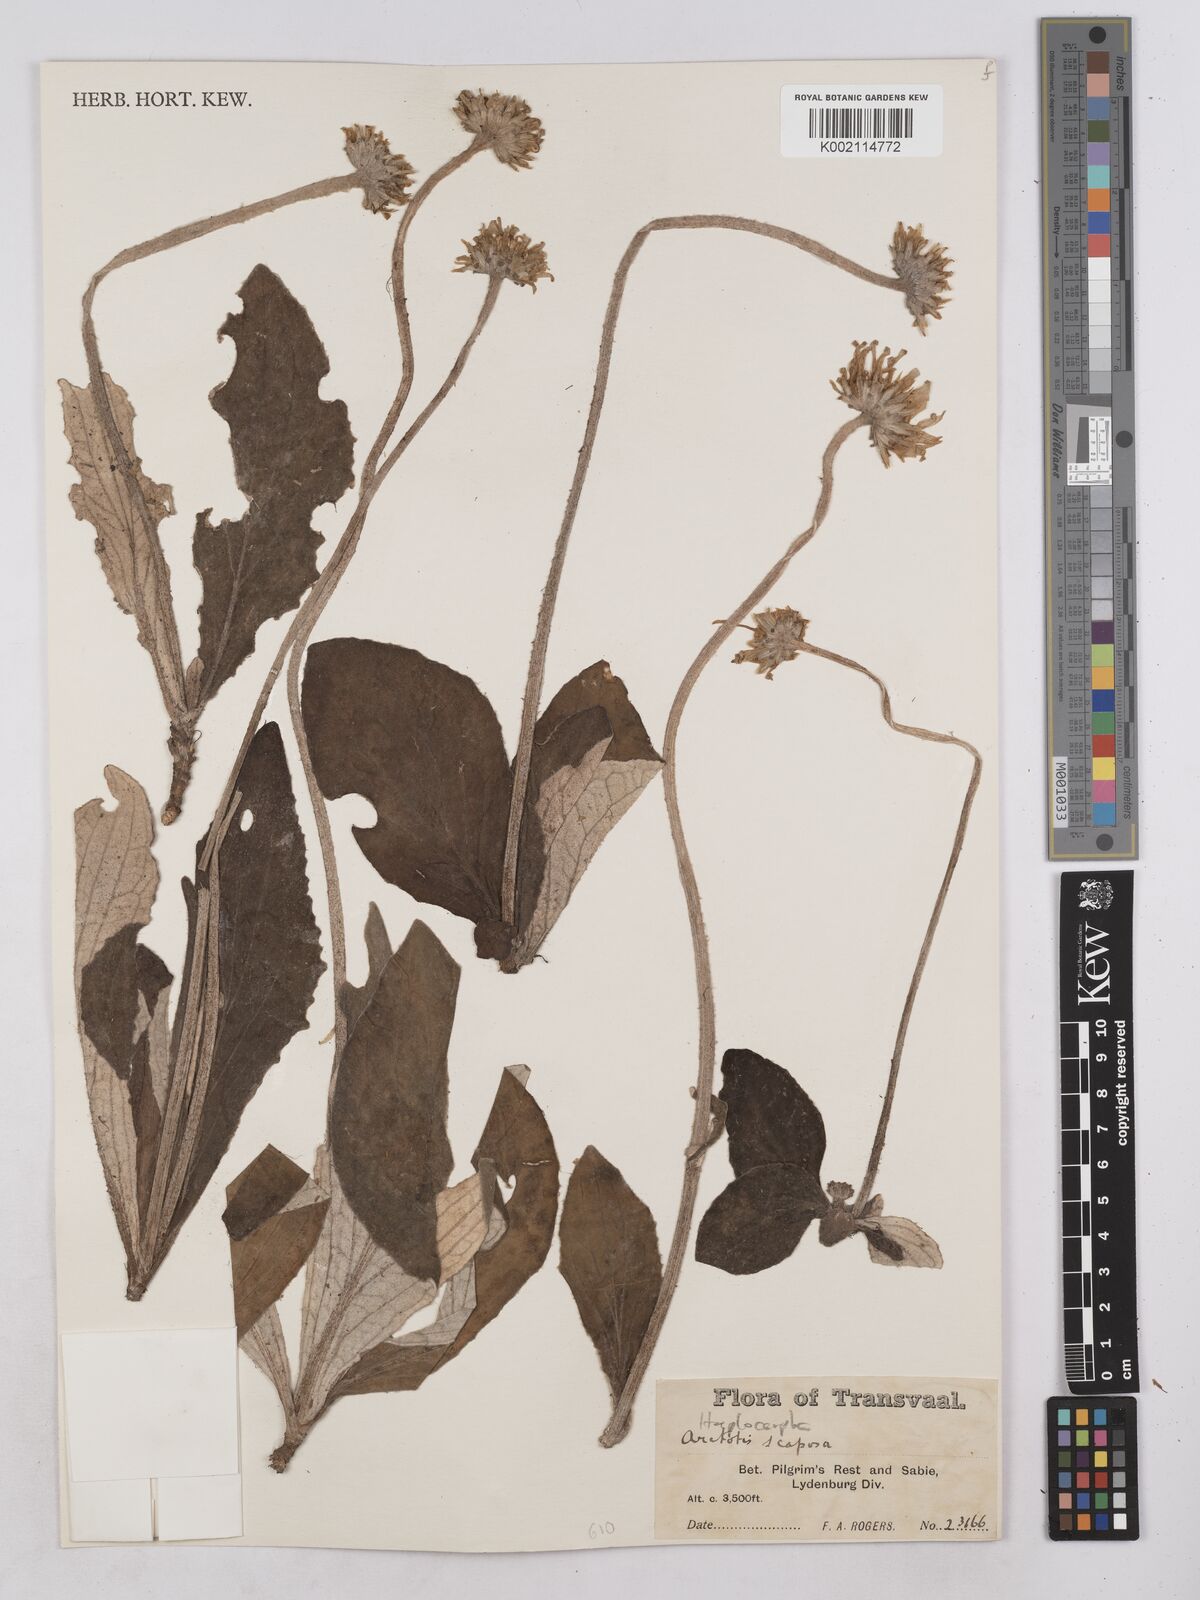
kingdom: Plantae
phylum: Tracheophyta
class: Magnoliopsida
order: Asterales
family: Asteraceae
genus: Haplocarpha
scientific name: Haplocarpha scaposa
